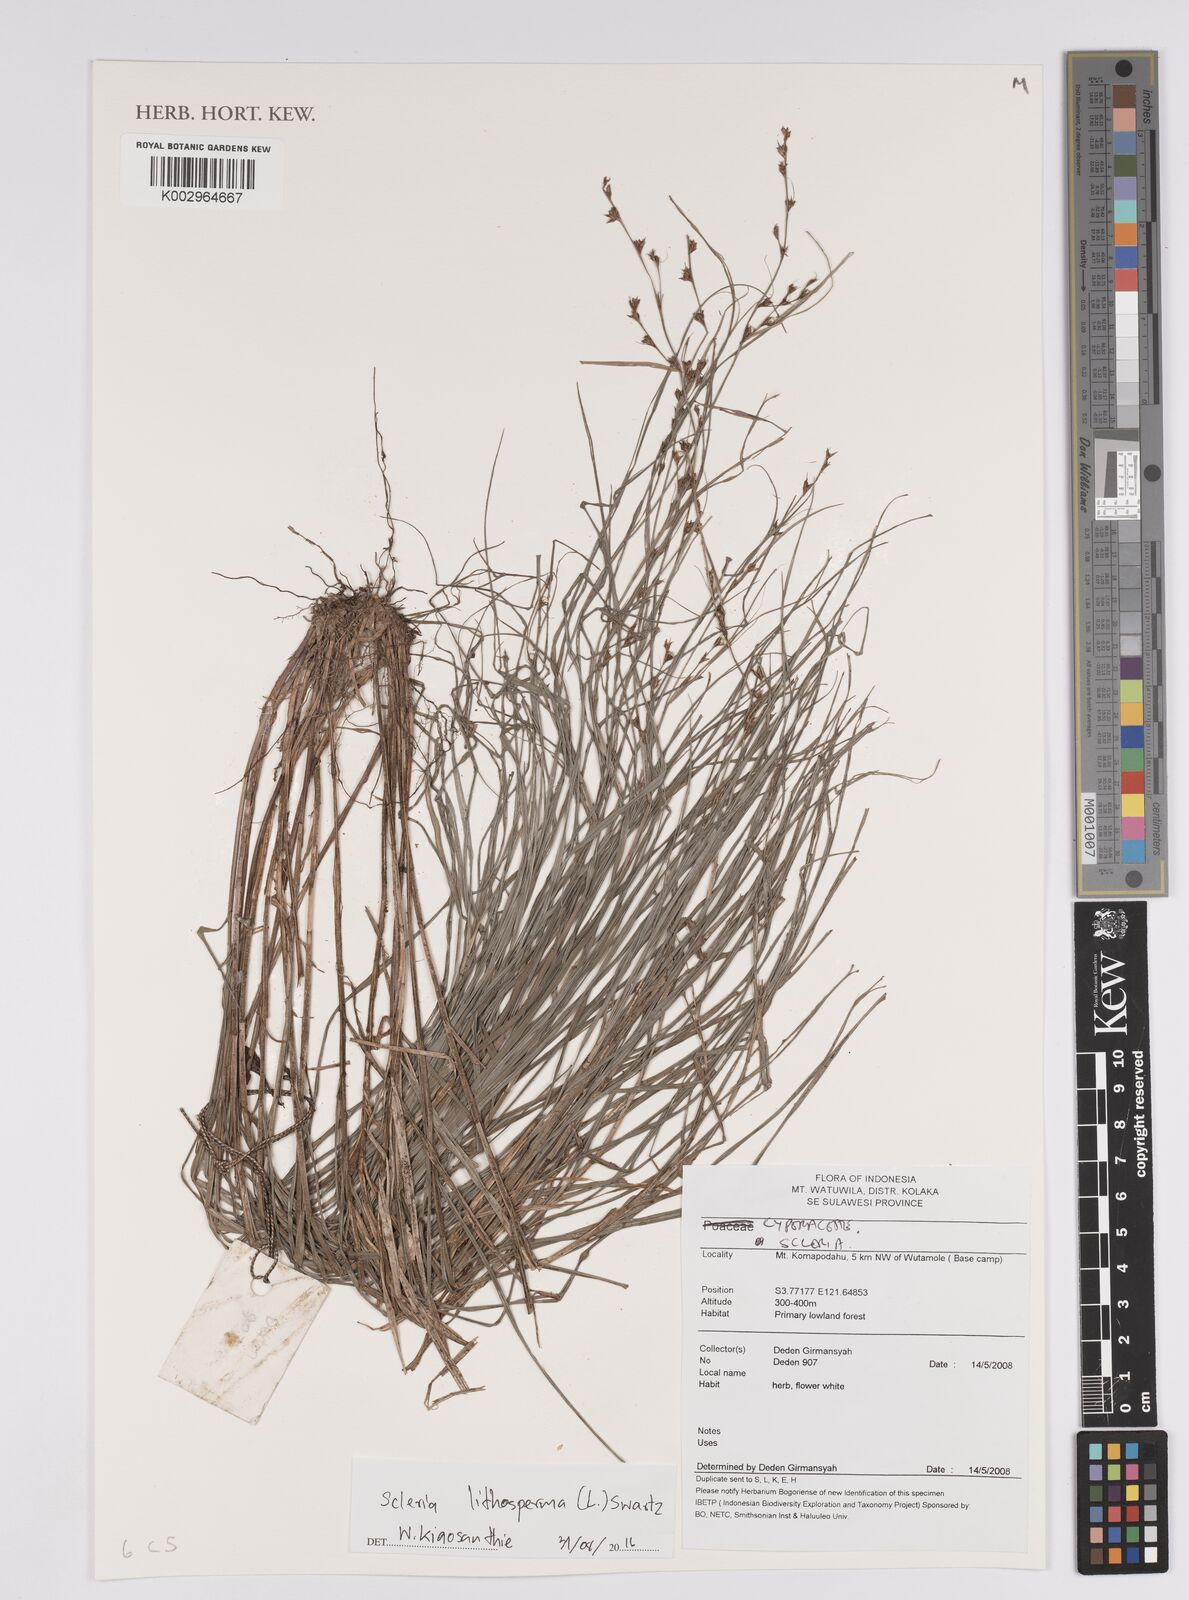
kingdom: Plantae
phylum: Tracheophyta
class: Liliopsida
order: Poales
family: Cyperaceae
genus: Scleria
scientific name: Scleria lithosperma
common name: Florida keys nut-rush
